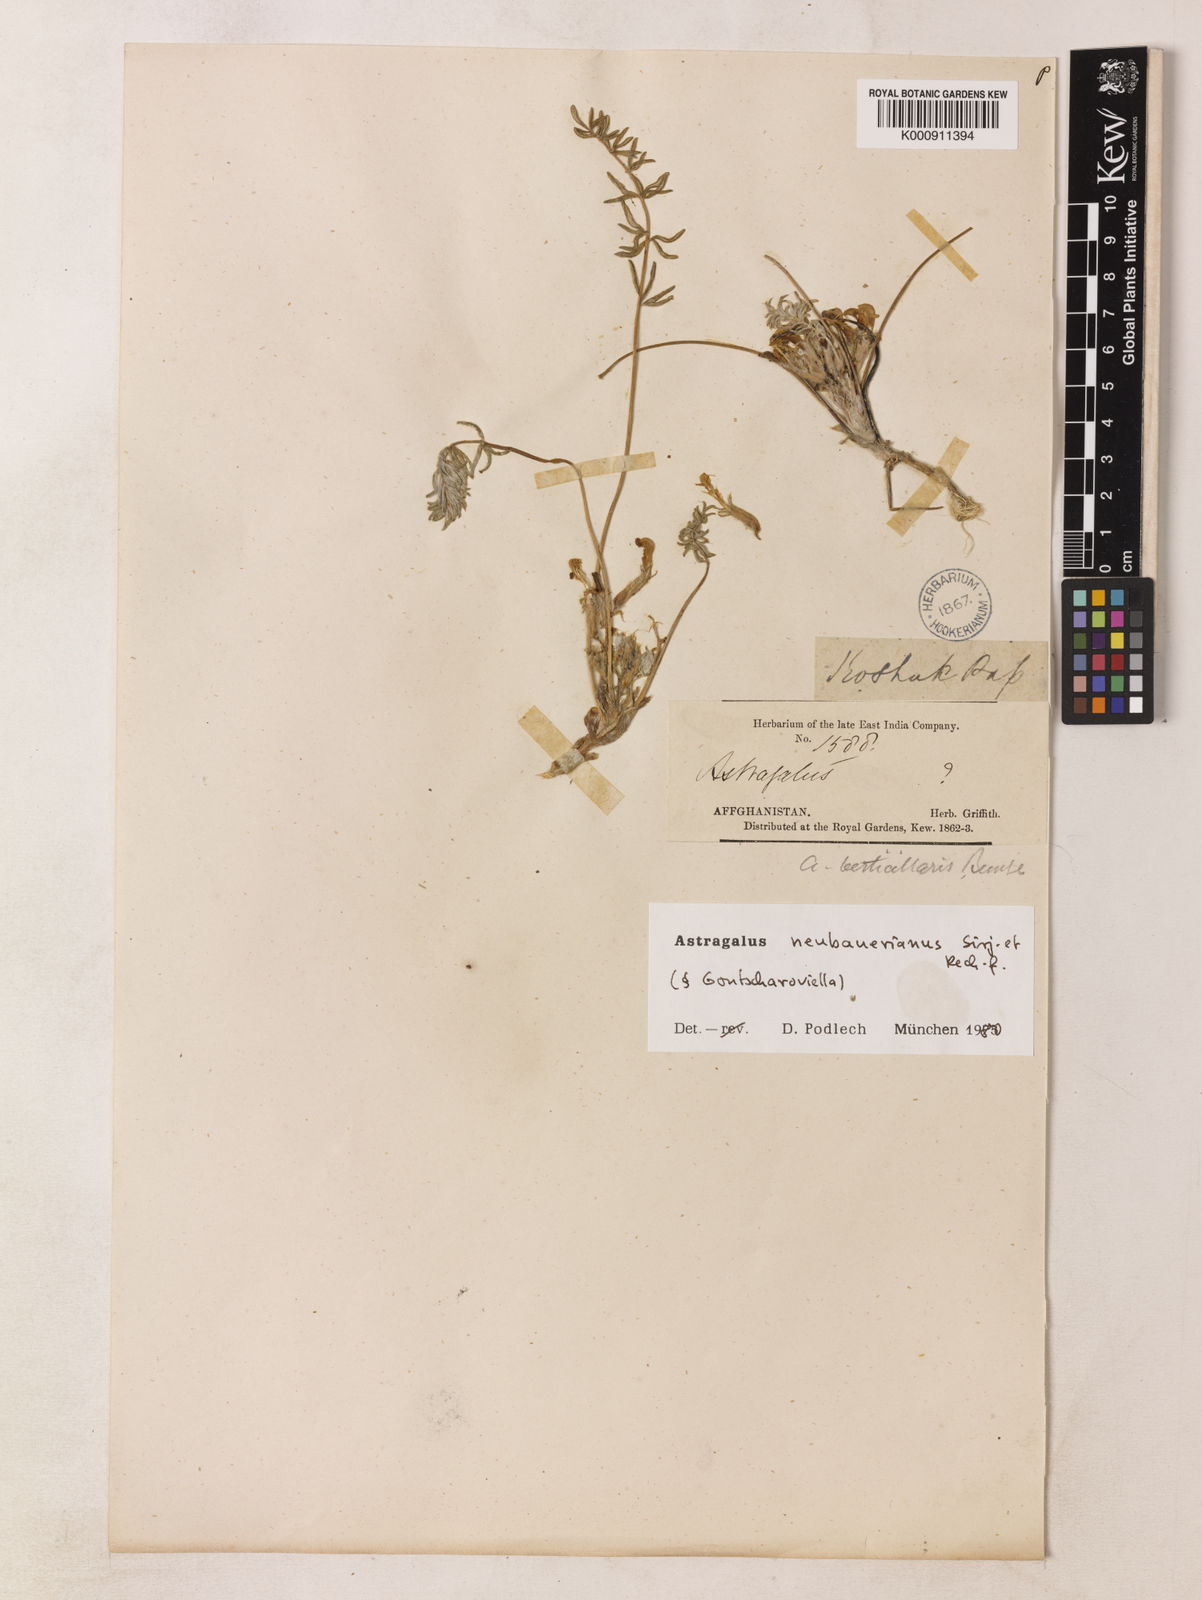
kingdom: Plantae
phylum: Tracheophyta
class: Magnoliopsida
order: Fabales
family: Fabaceae
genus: Astragalus
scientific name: Astragalus neubauerianus
